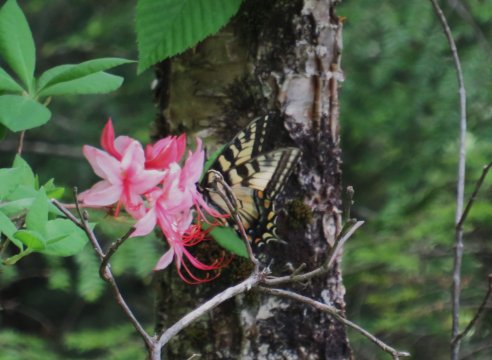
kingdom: Animalia
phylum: Arthropoda
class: Insecta
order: Lepidoptera
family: Papilionidae
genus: Pterourus
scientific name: Pterourus canadensis
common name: Canadian Tiger Swallowtail
